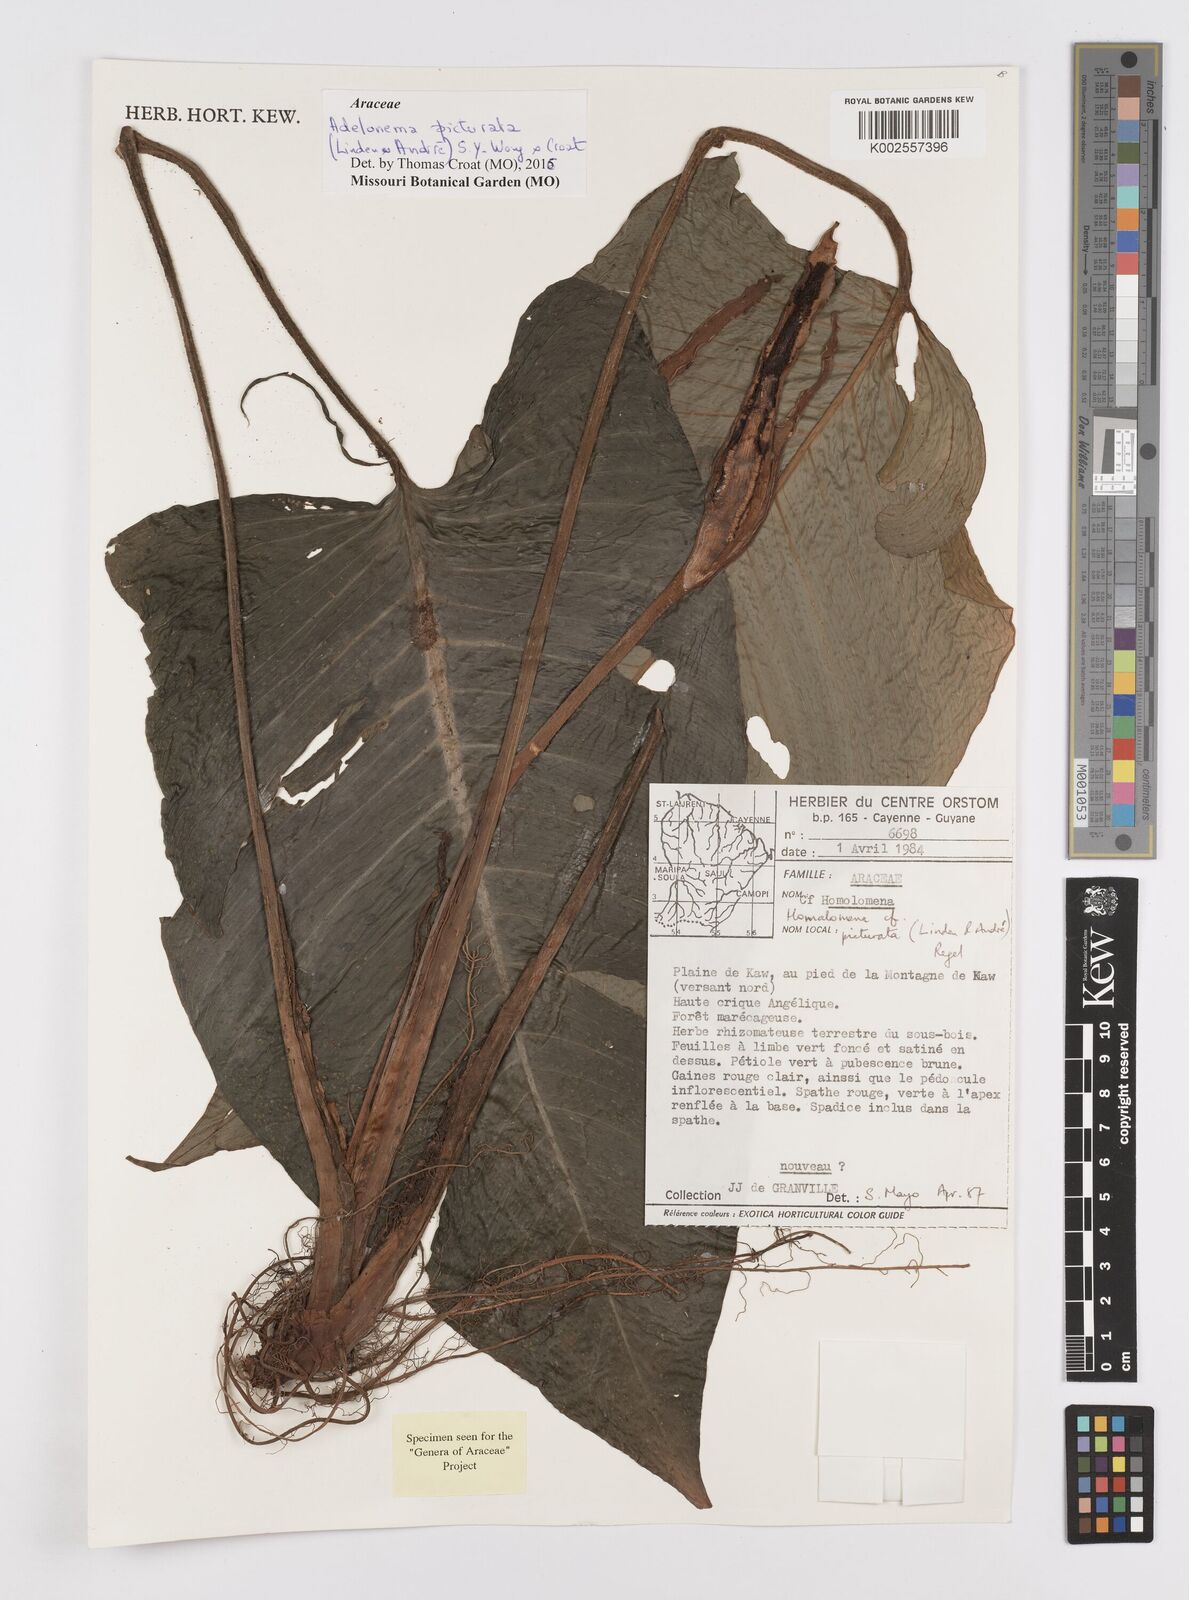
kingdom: Plantae
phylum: Tracheophyta
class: Liliopsida
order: Alismatales
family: Araceae
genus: Adelonema
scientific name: Adelonema picturatum
